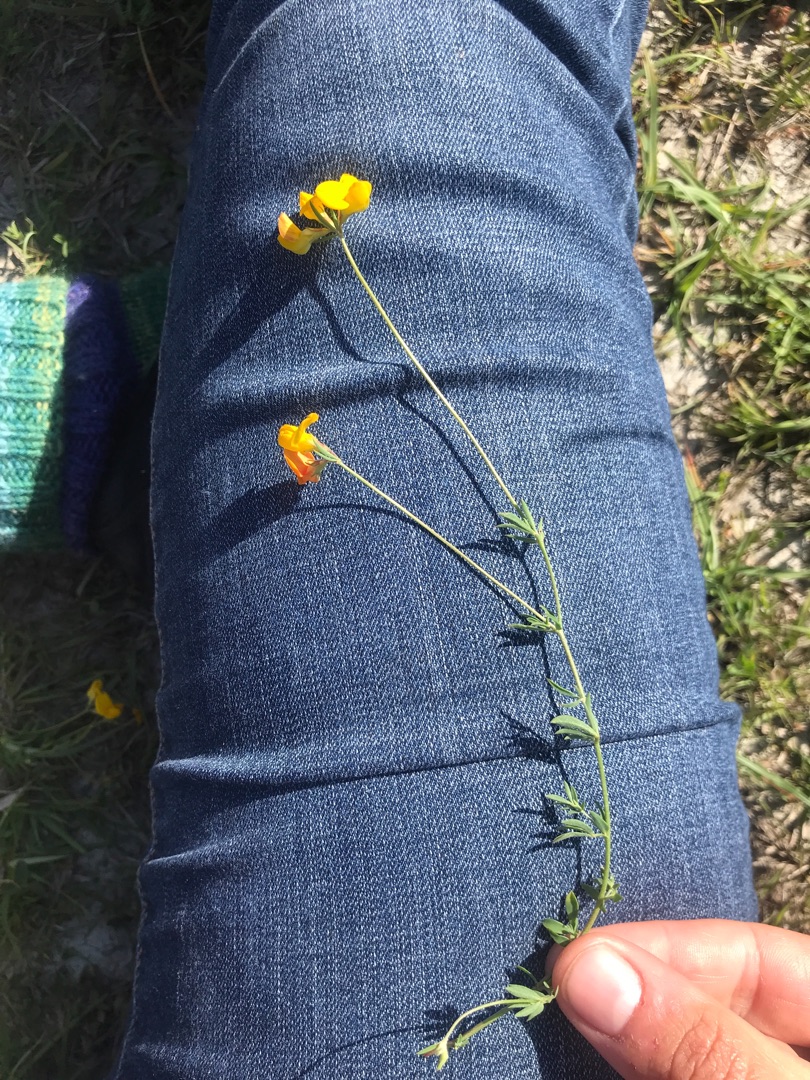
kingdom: Plantae
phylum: Tracheophyta
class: Magnoliopsida
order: Fabales
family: Fabaceae
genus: Lotus
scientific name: Lotus tenuis
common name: Smalbladet kællingetand
